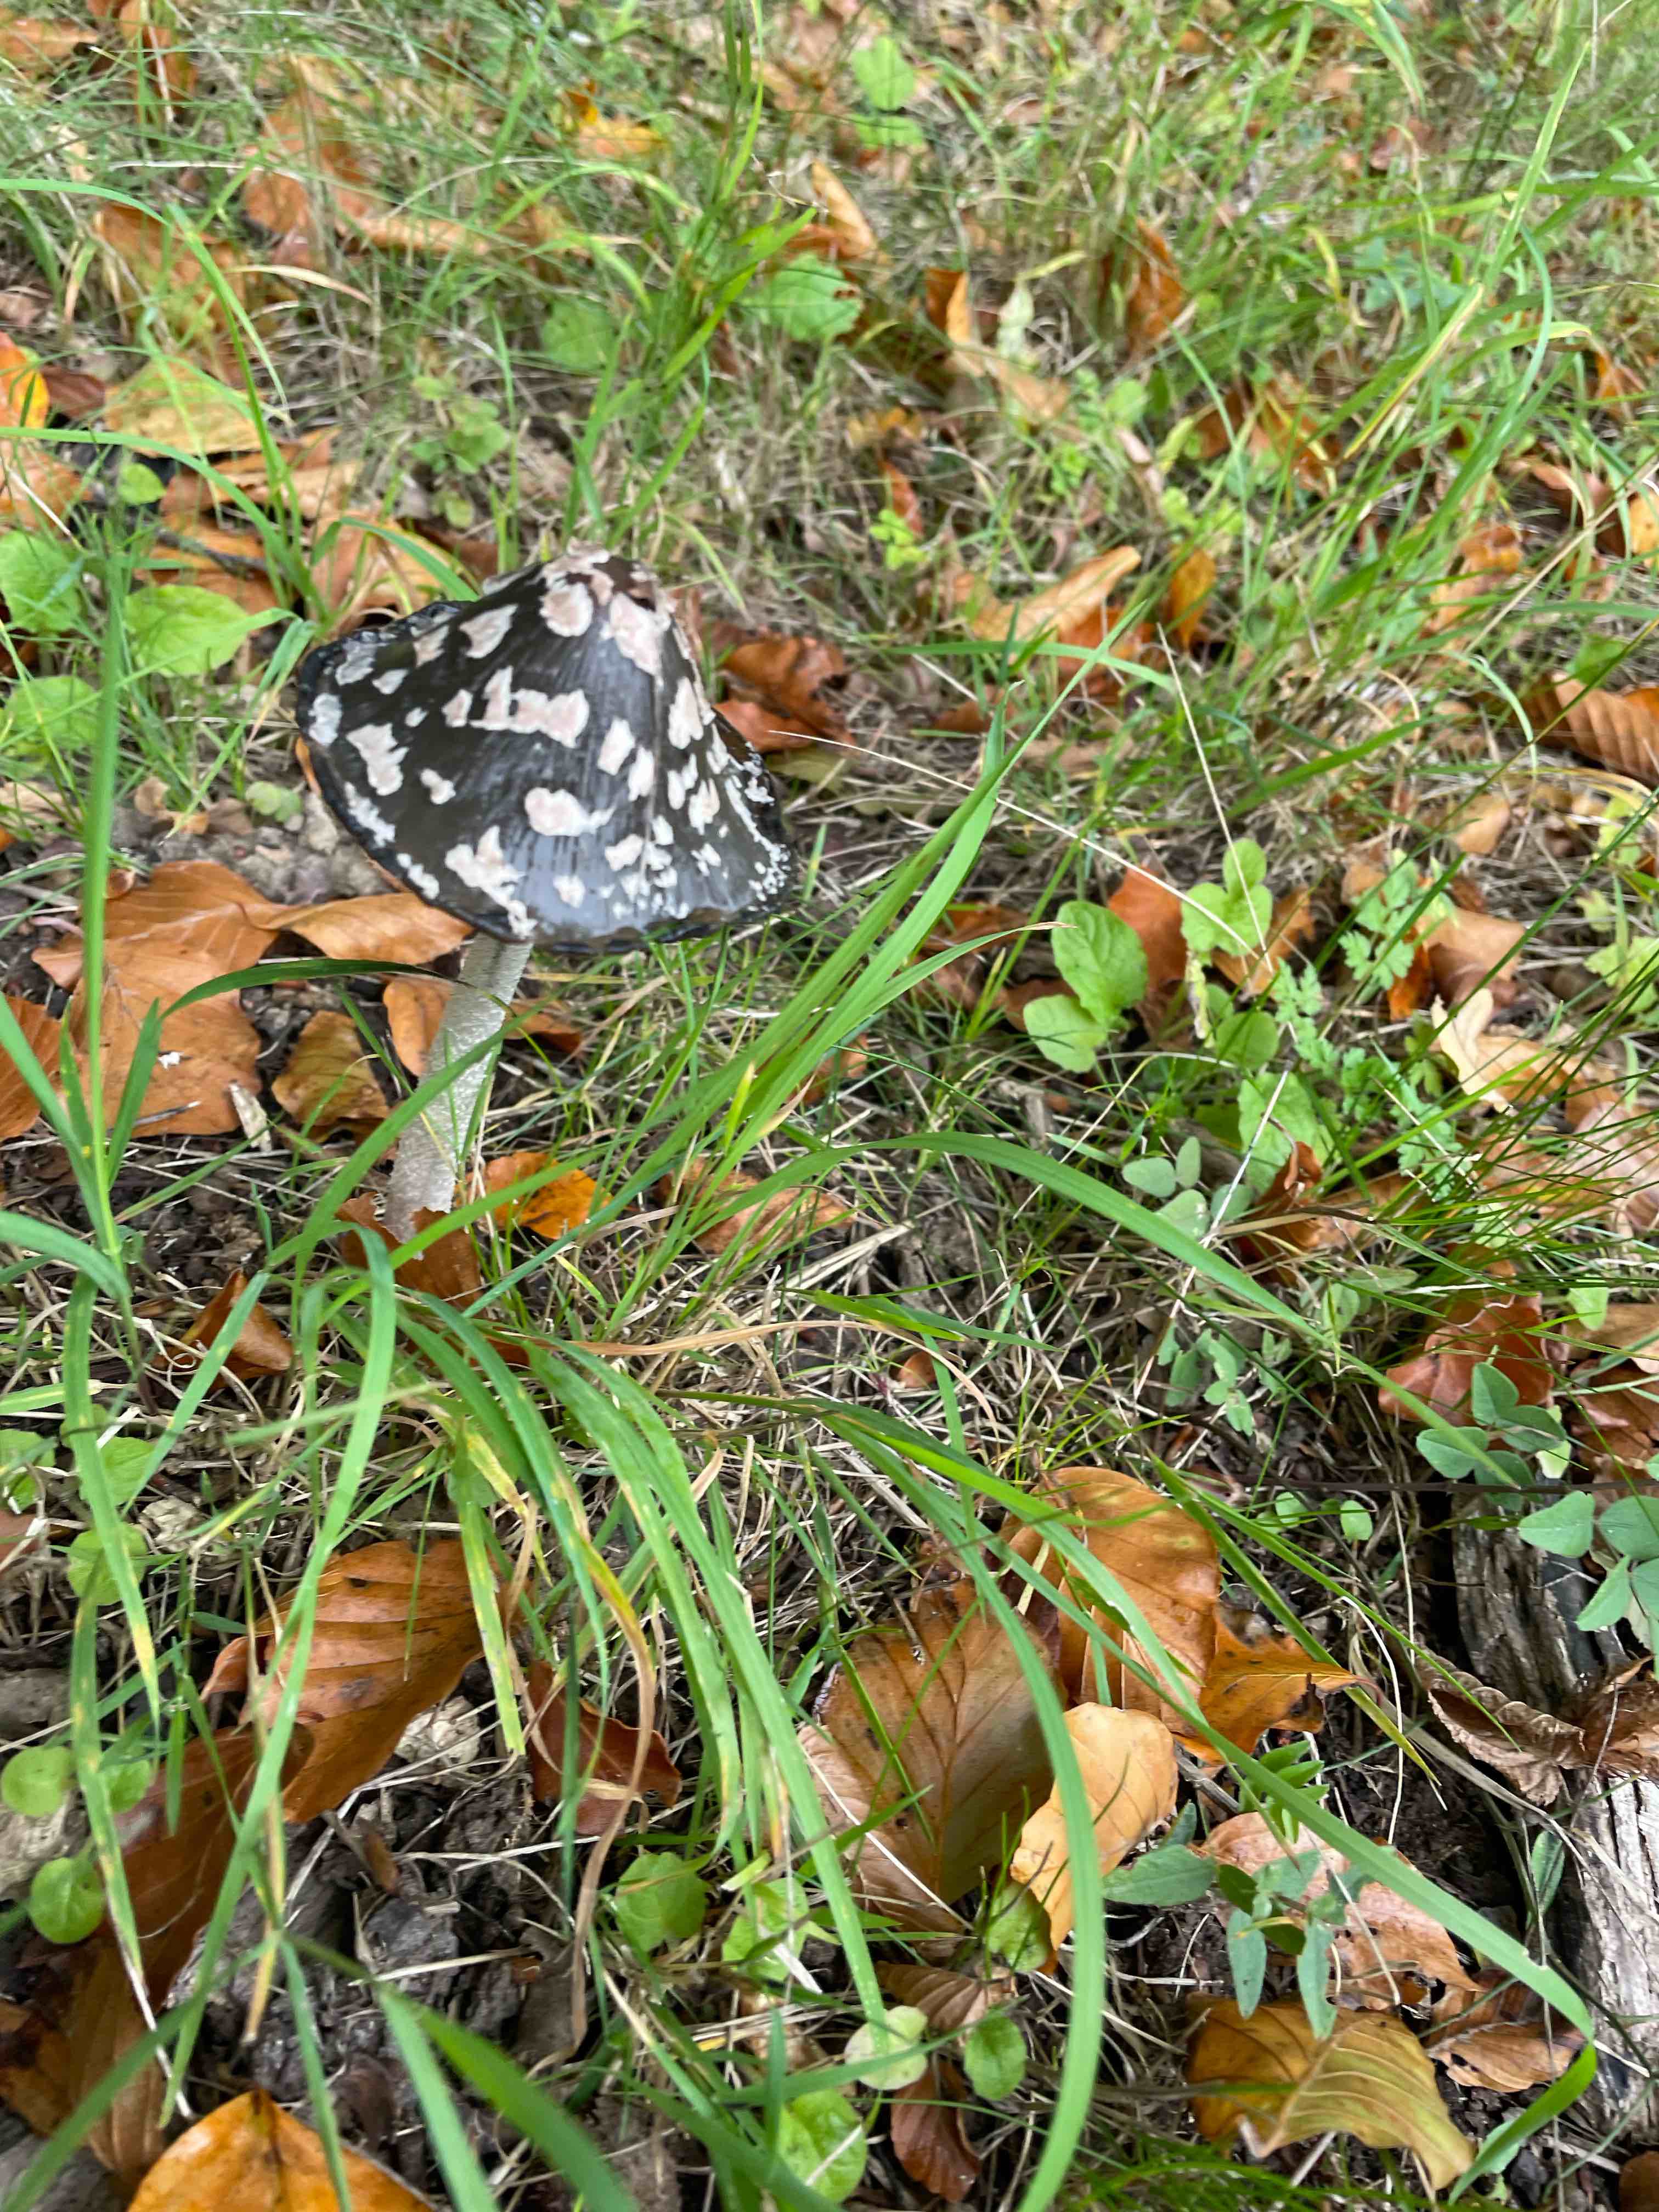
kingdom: Fungi
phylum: Basidiomycota
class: Agaricomycetes
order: Agaricales
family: Psathyrellaceae
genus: Coprinopsis
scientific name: Coprinopsis picacea
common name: skade-blækhat
